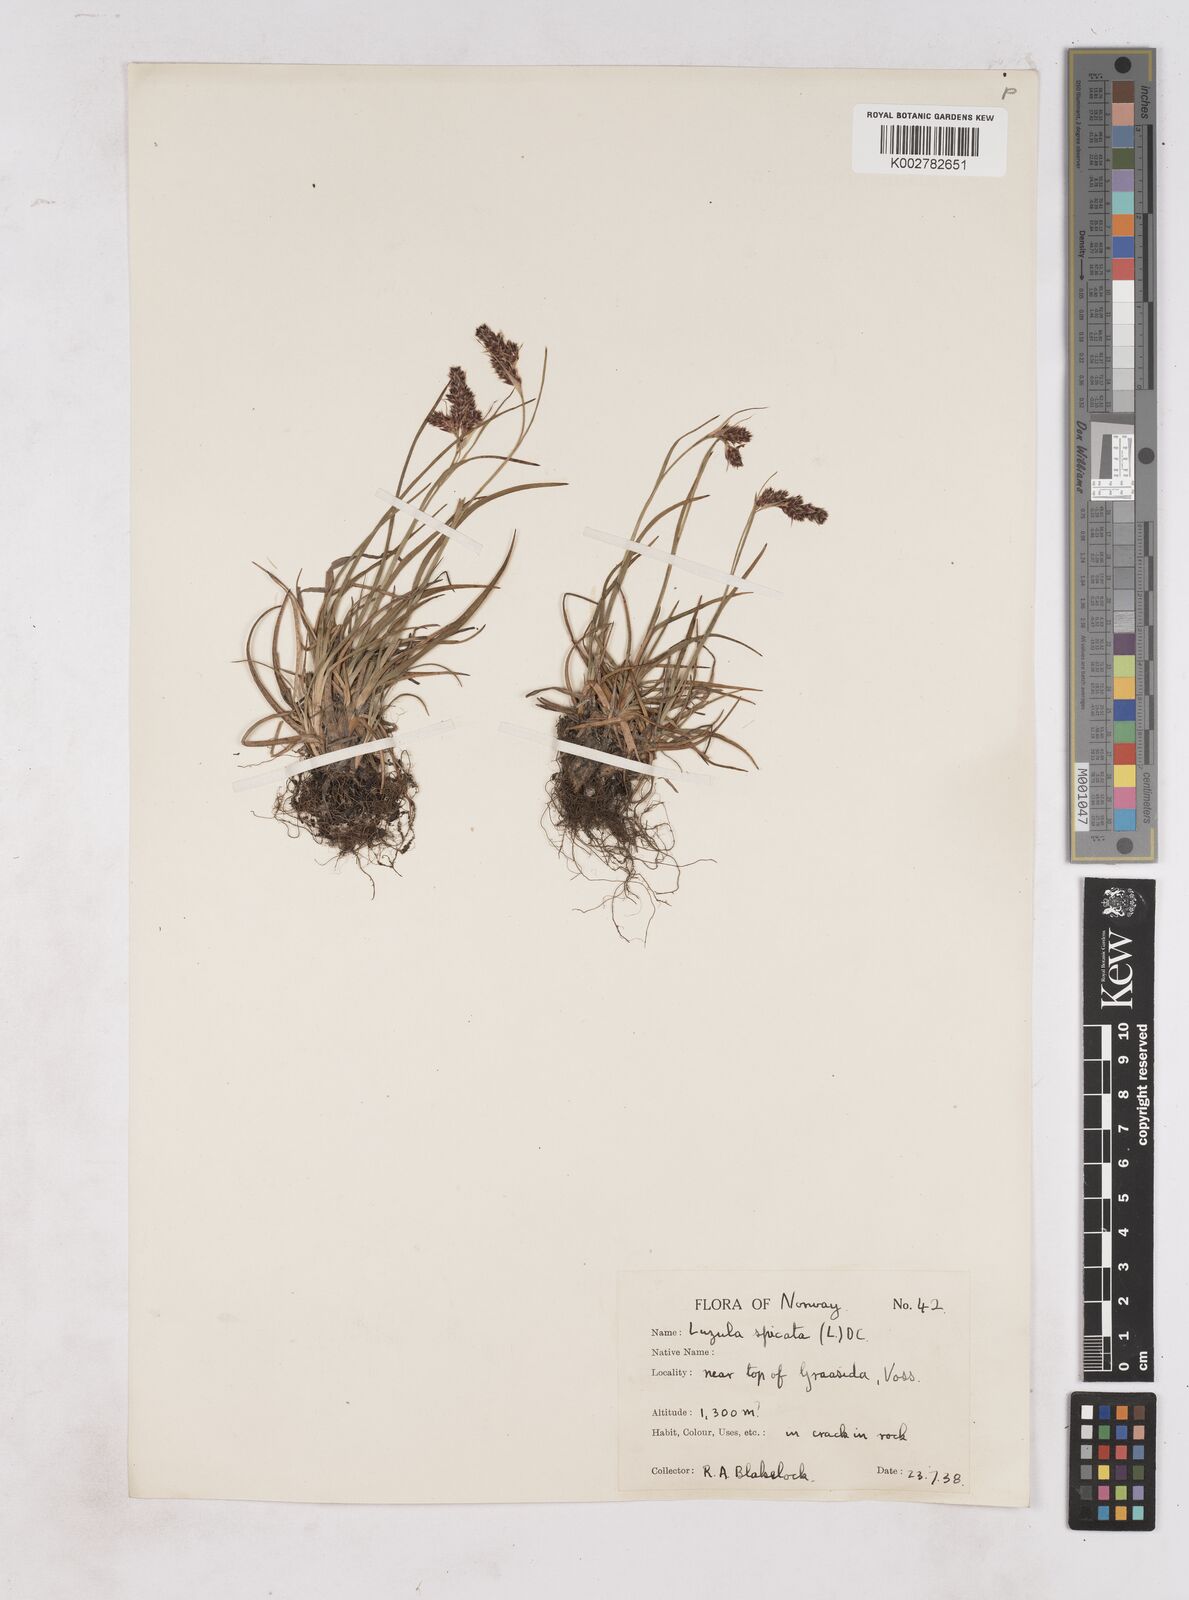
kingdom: Plantae
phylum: Tracheophyta
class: Liliopsida
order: Poales
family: Juncaceae
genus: Luzula
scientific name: Luzula spicata
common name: Spiked wood-rush
